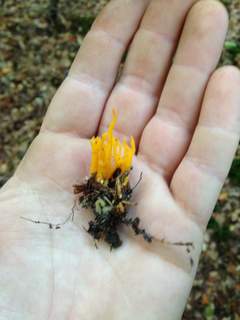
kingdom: Fungi
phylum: Basidiomycota
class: Dacrymycetes
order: Dacrymycetales
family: Dacrymycetaceae
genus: Calocera
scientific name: Calocera viscosa
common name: almindelig guldgaffel
